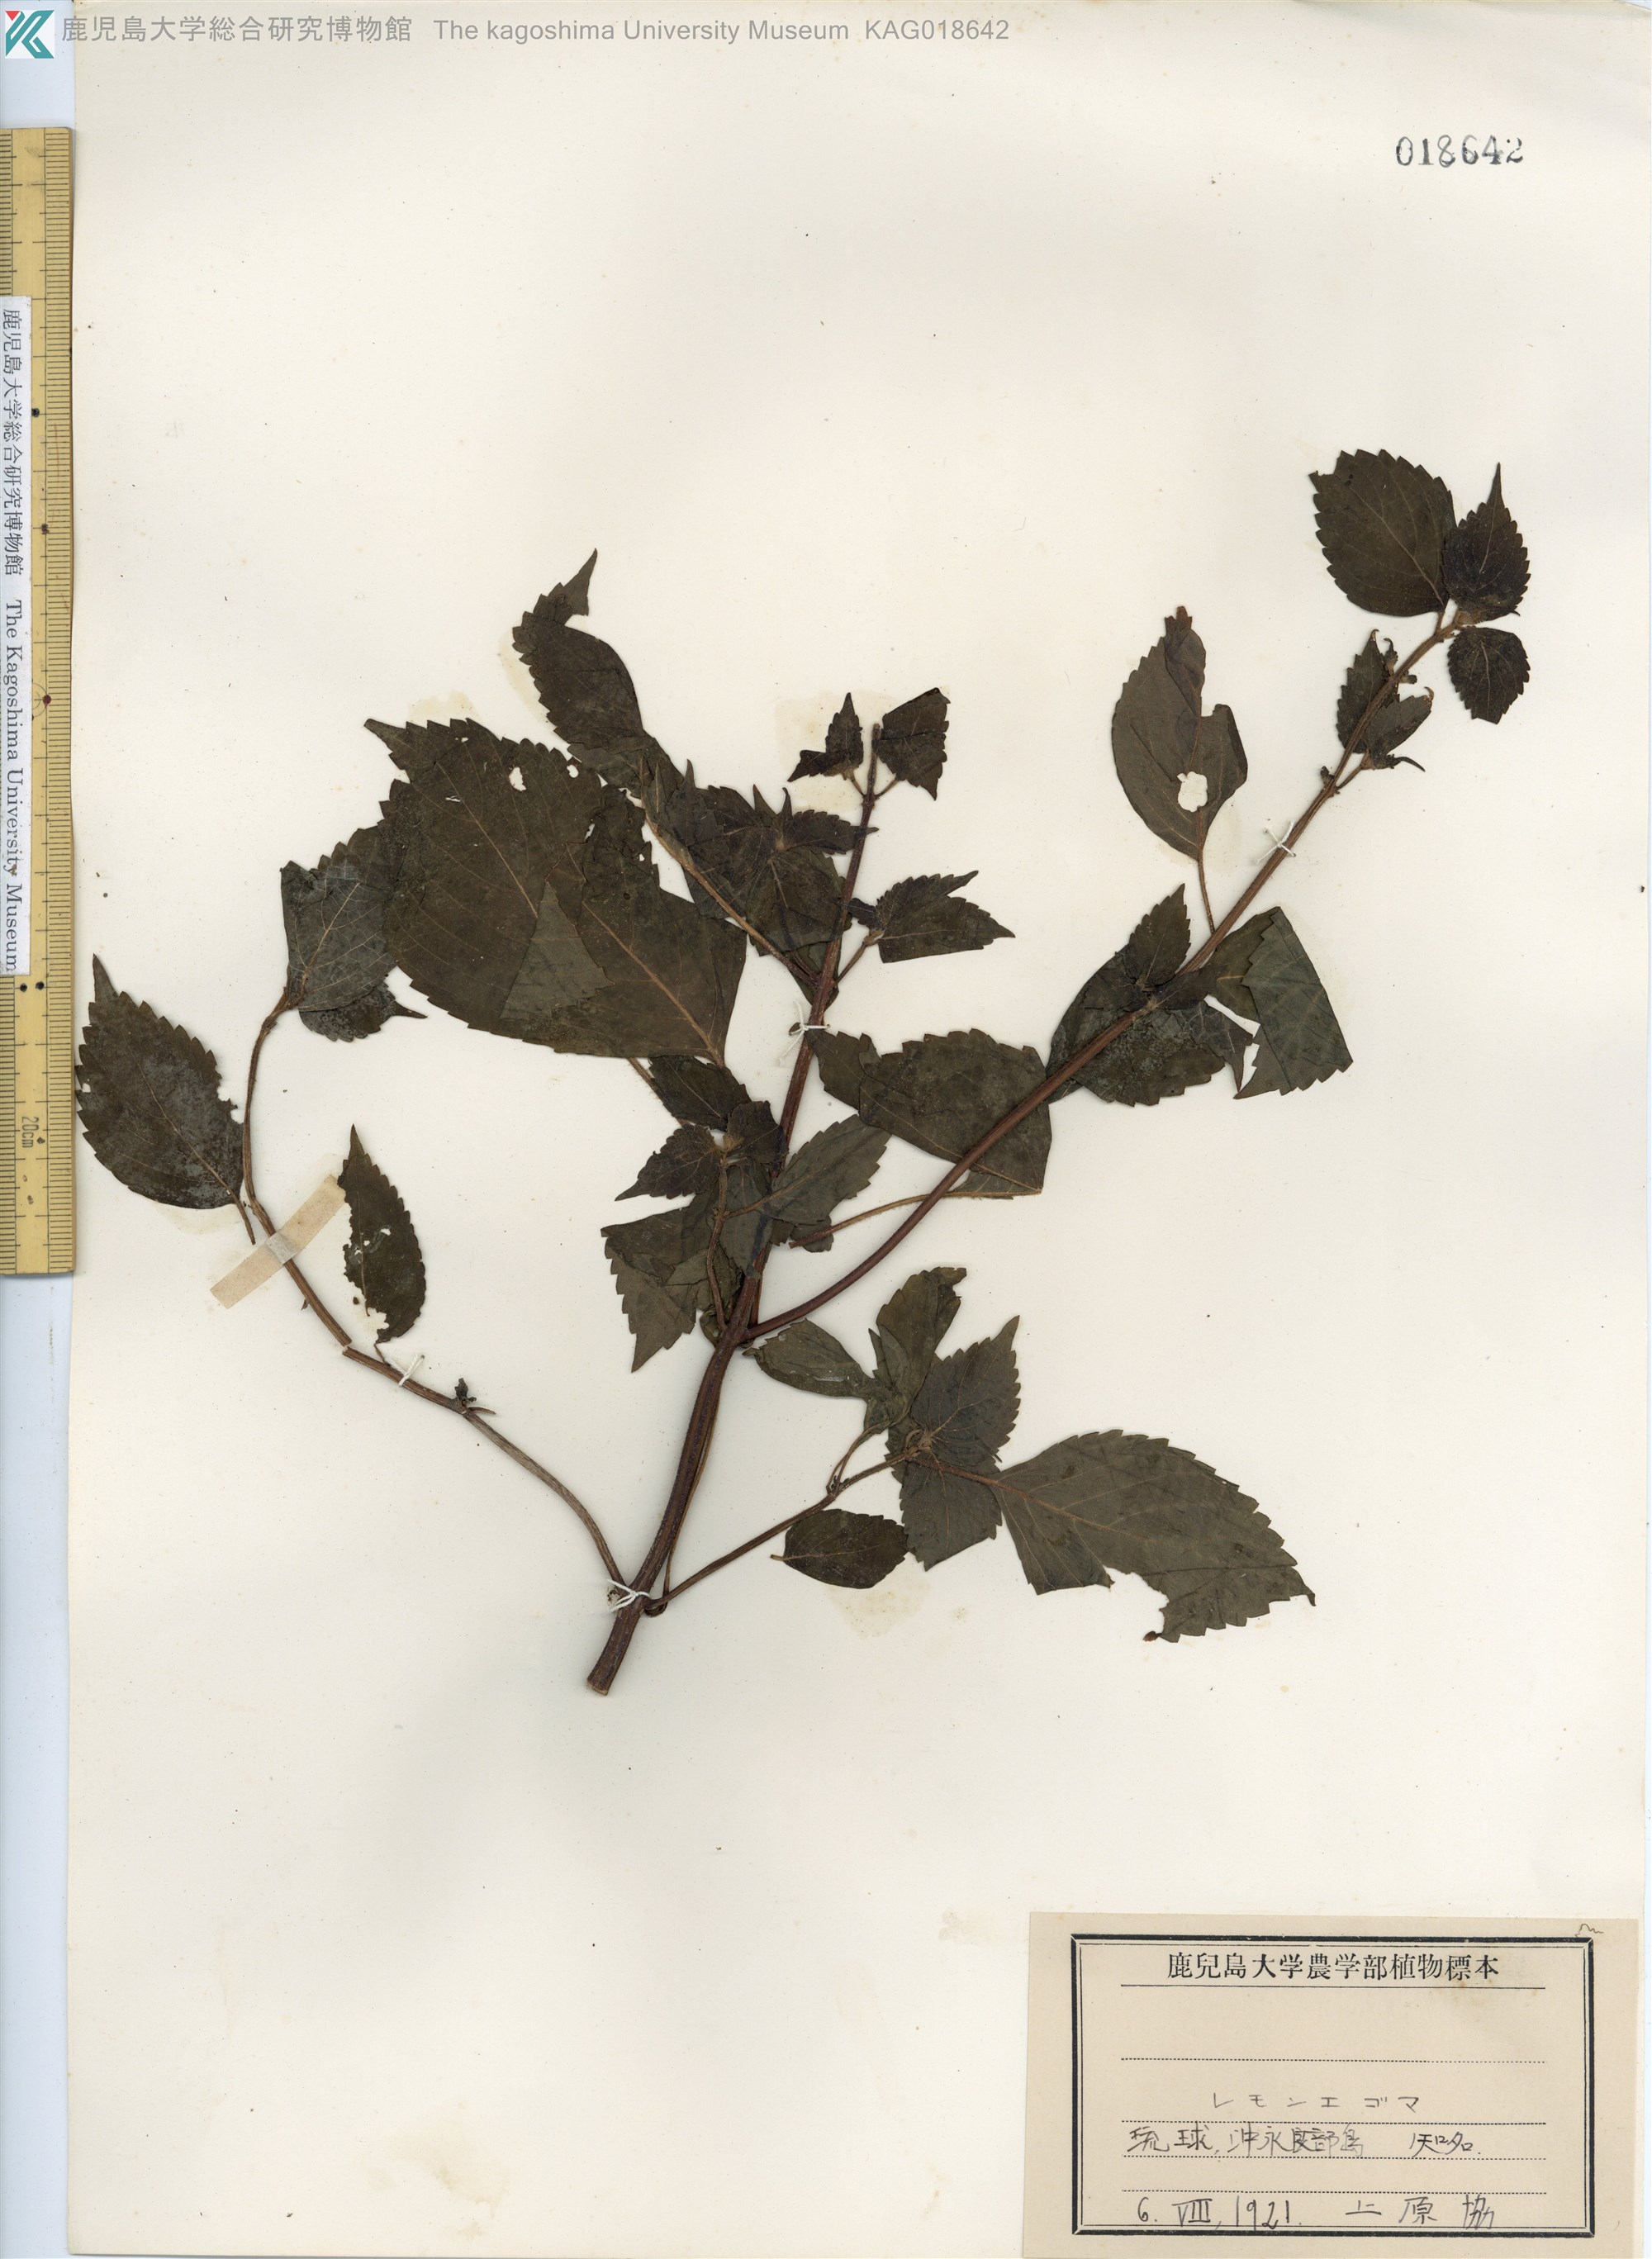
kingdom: Plantae
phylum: Tracheophyta
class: Magnoliopsida
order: Lamiales
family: Lamiaceae
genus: Perilla
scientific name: Perilla frutescens
